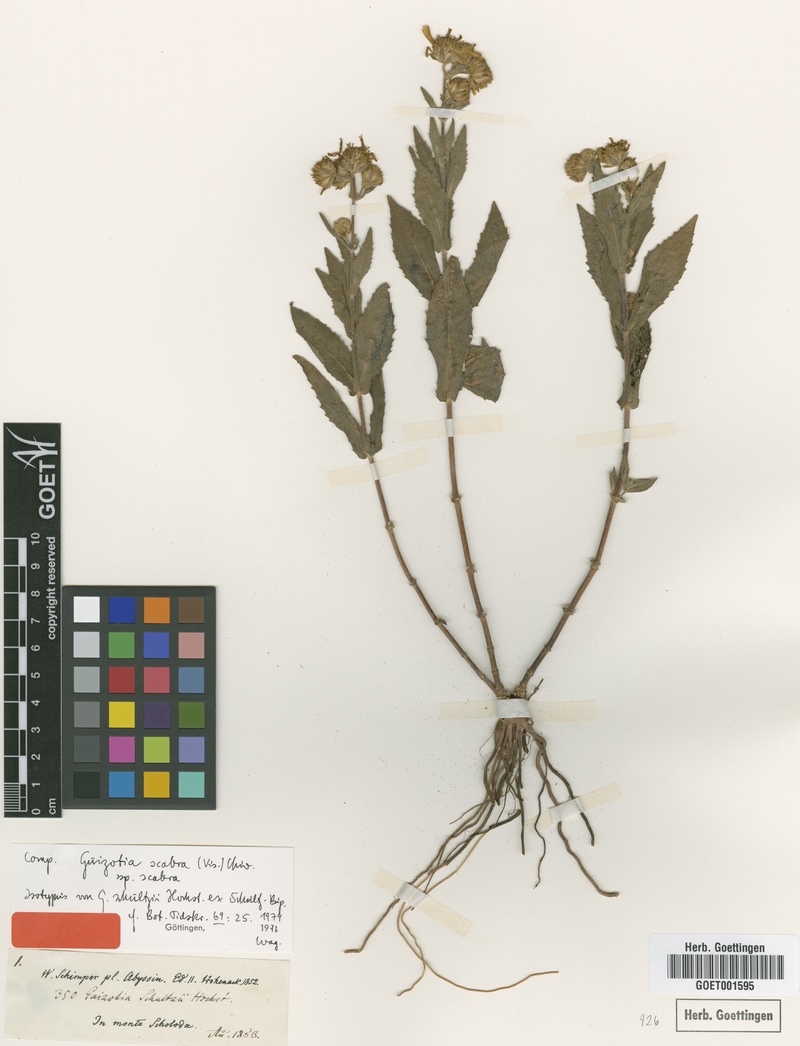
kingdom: Plantae
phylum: Tracheophyta
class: Magnoliopsida
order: Asterales
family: Asteraceae
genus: Guizotia
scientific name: Guizotia scabra
